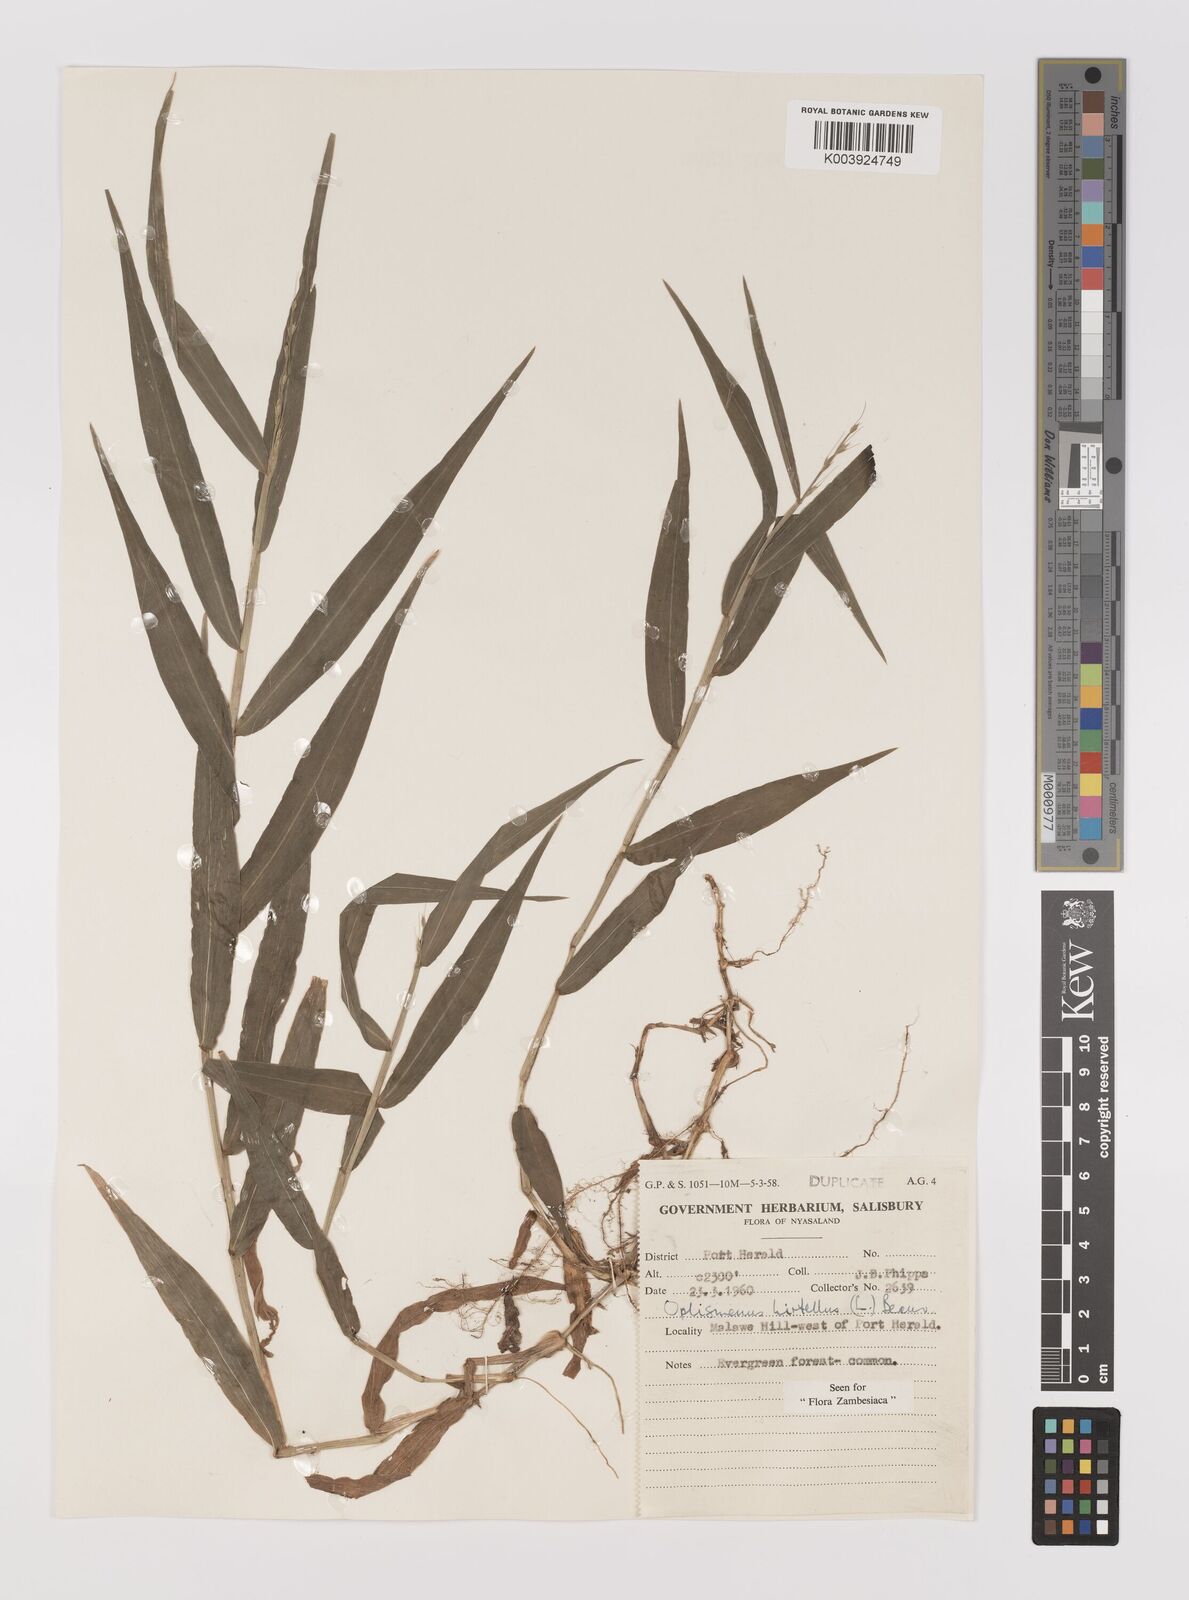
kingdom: Plantae
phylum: Tracheophyta
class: Liliopsida
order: Poales
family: Poaceae
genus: Oplismenus
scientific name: Oplismenus hirtellus
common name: Basketgrass
